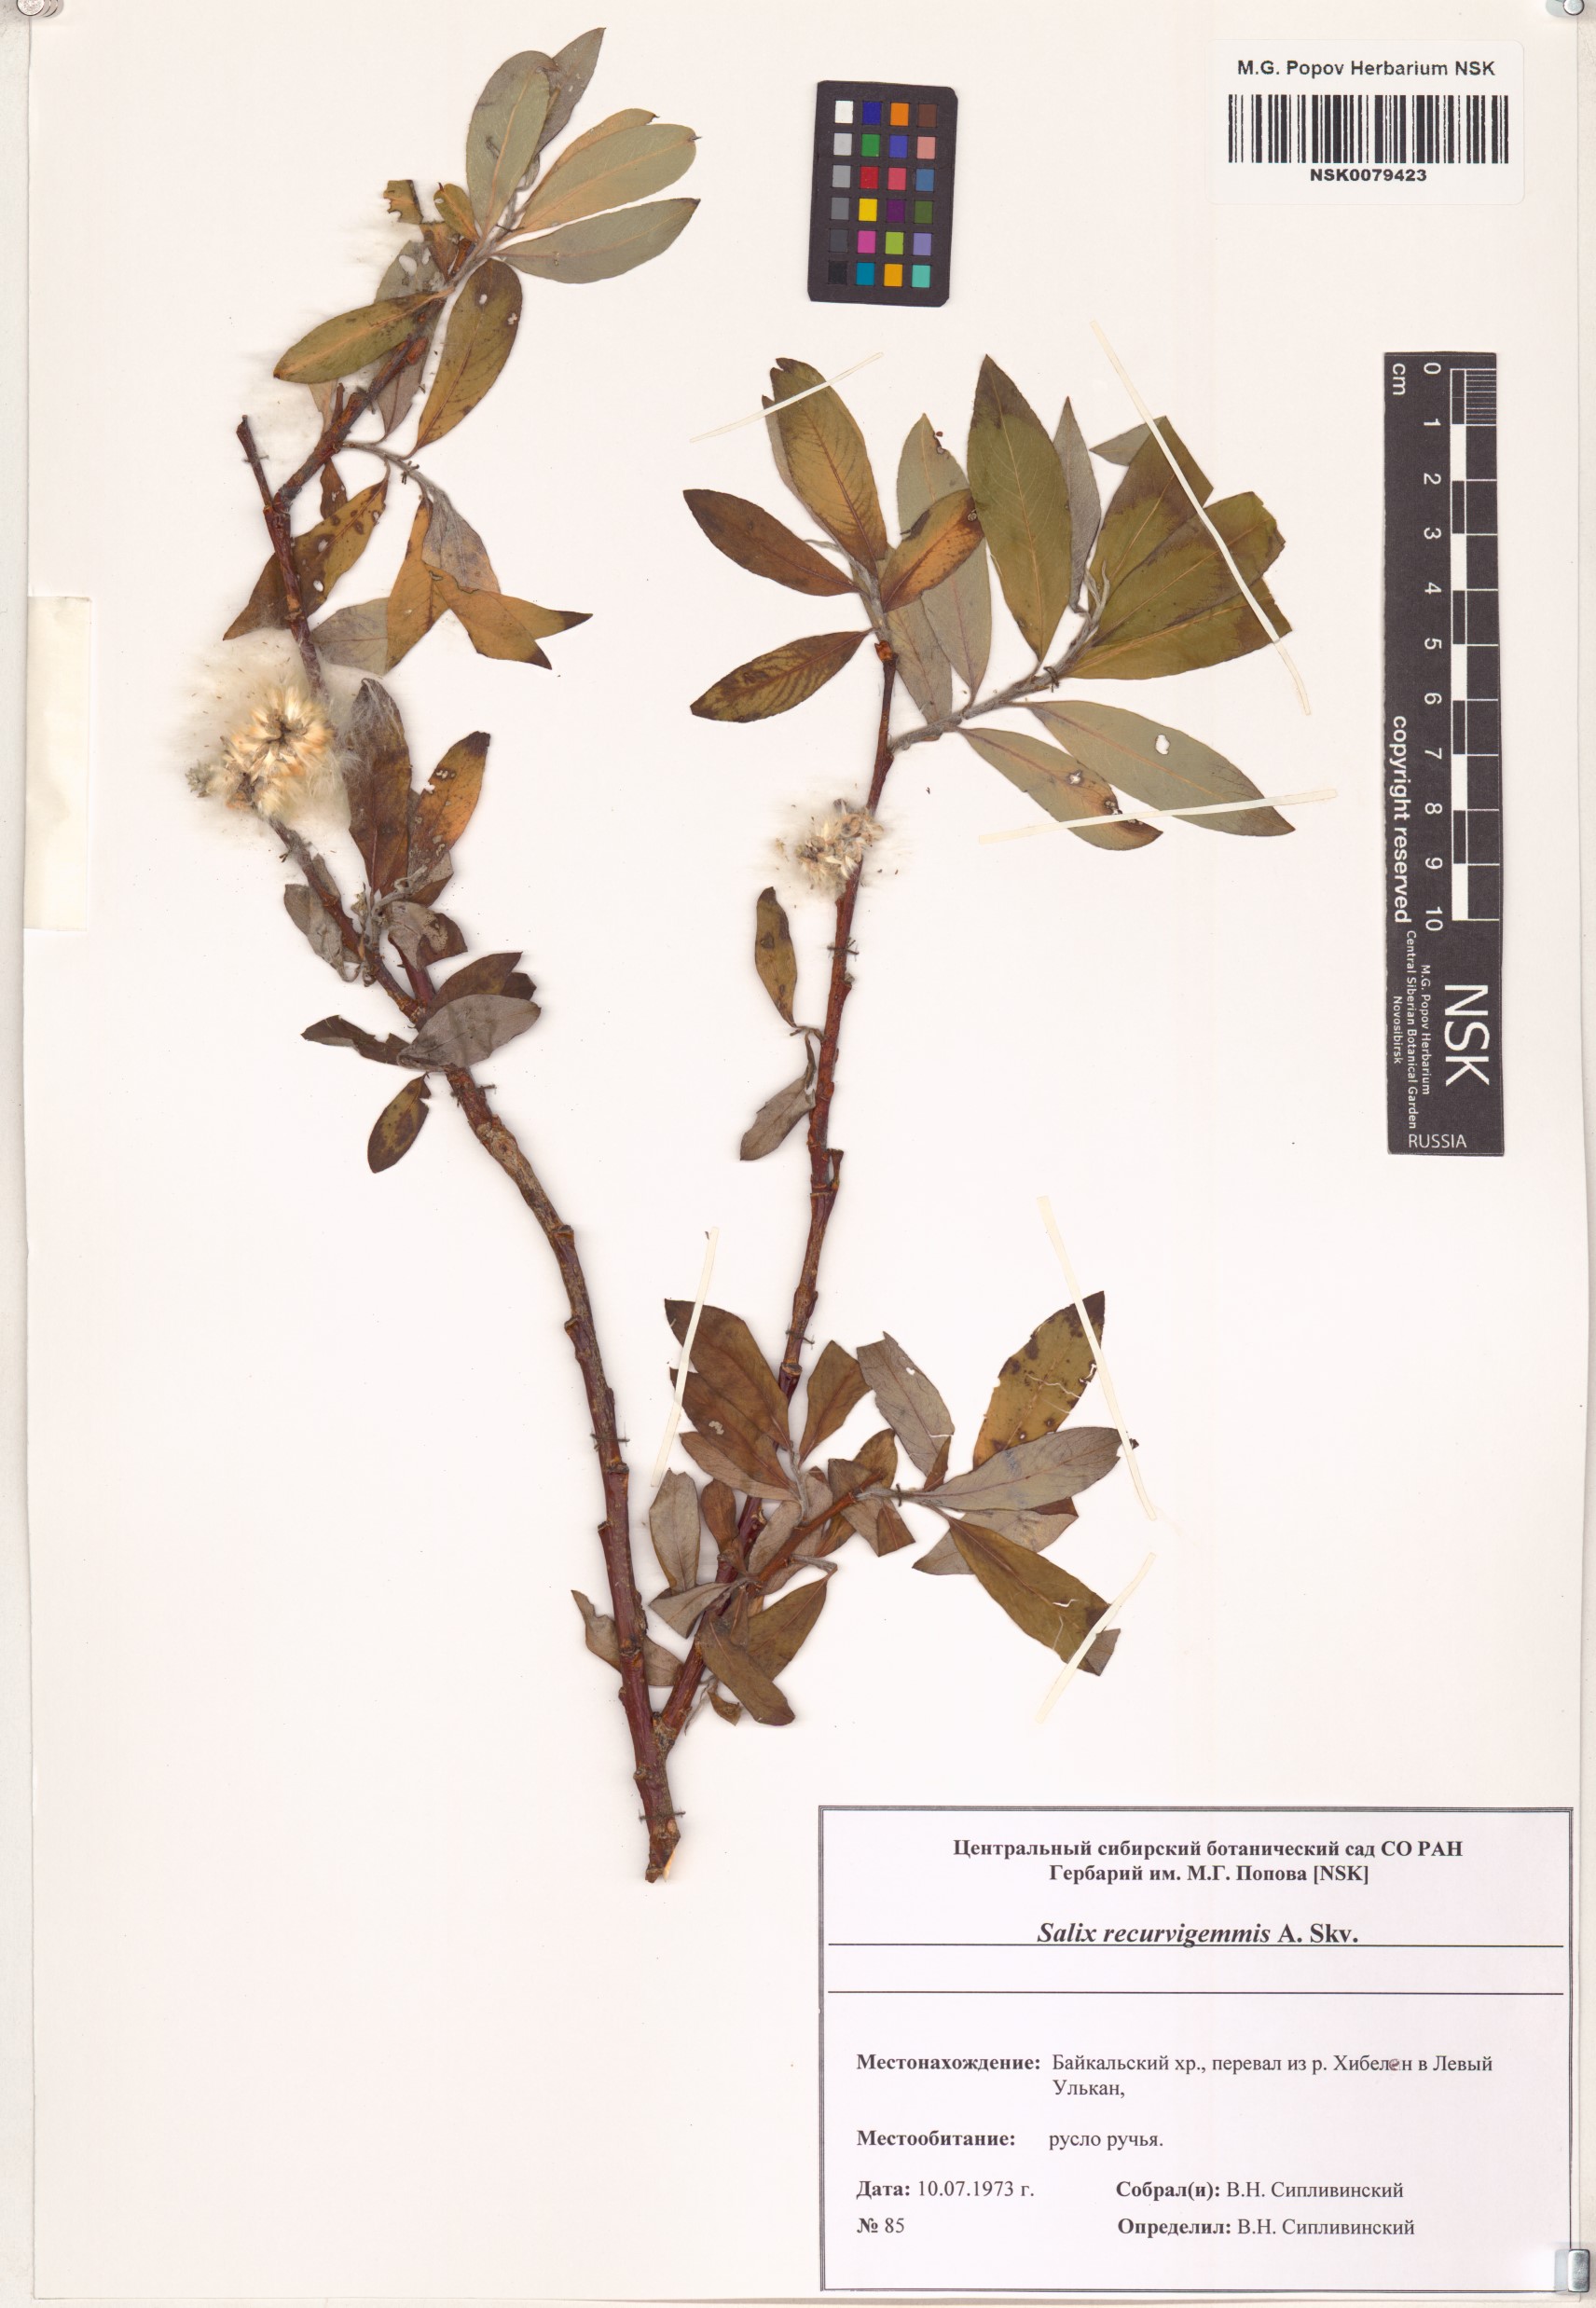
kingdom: Plantae
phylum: Tracheophyta
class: Magnoliopsida
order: Malpighiales
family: Salicaceae
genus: Salix
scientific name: Salix recurvigemmata
